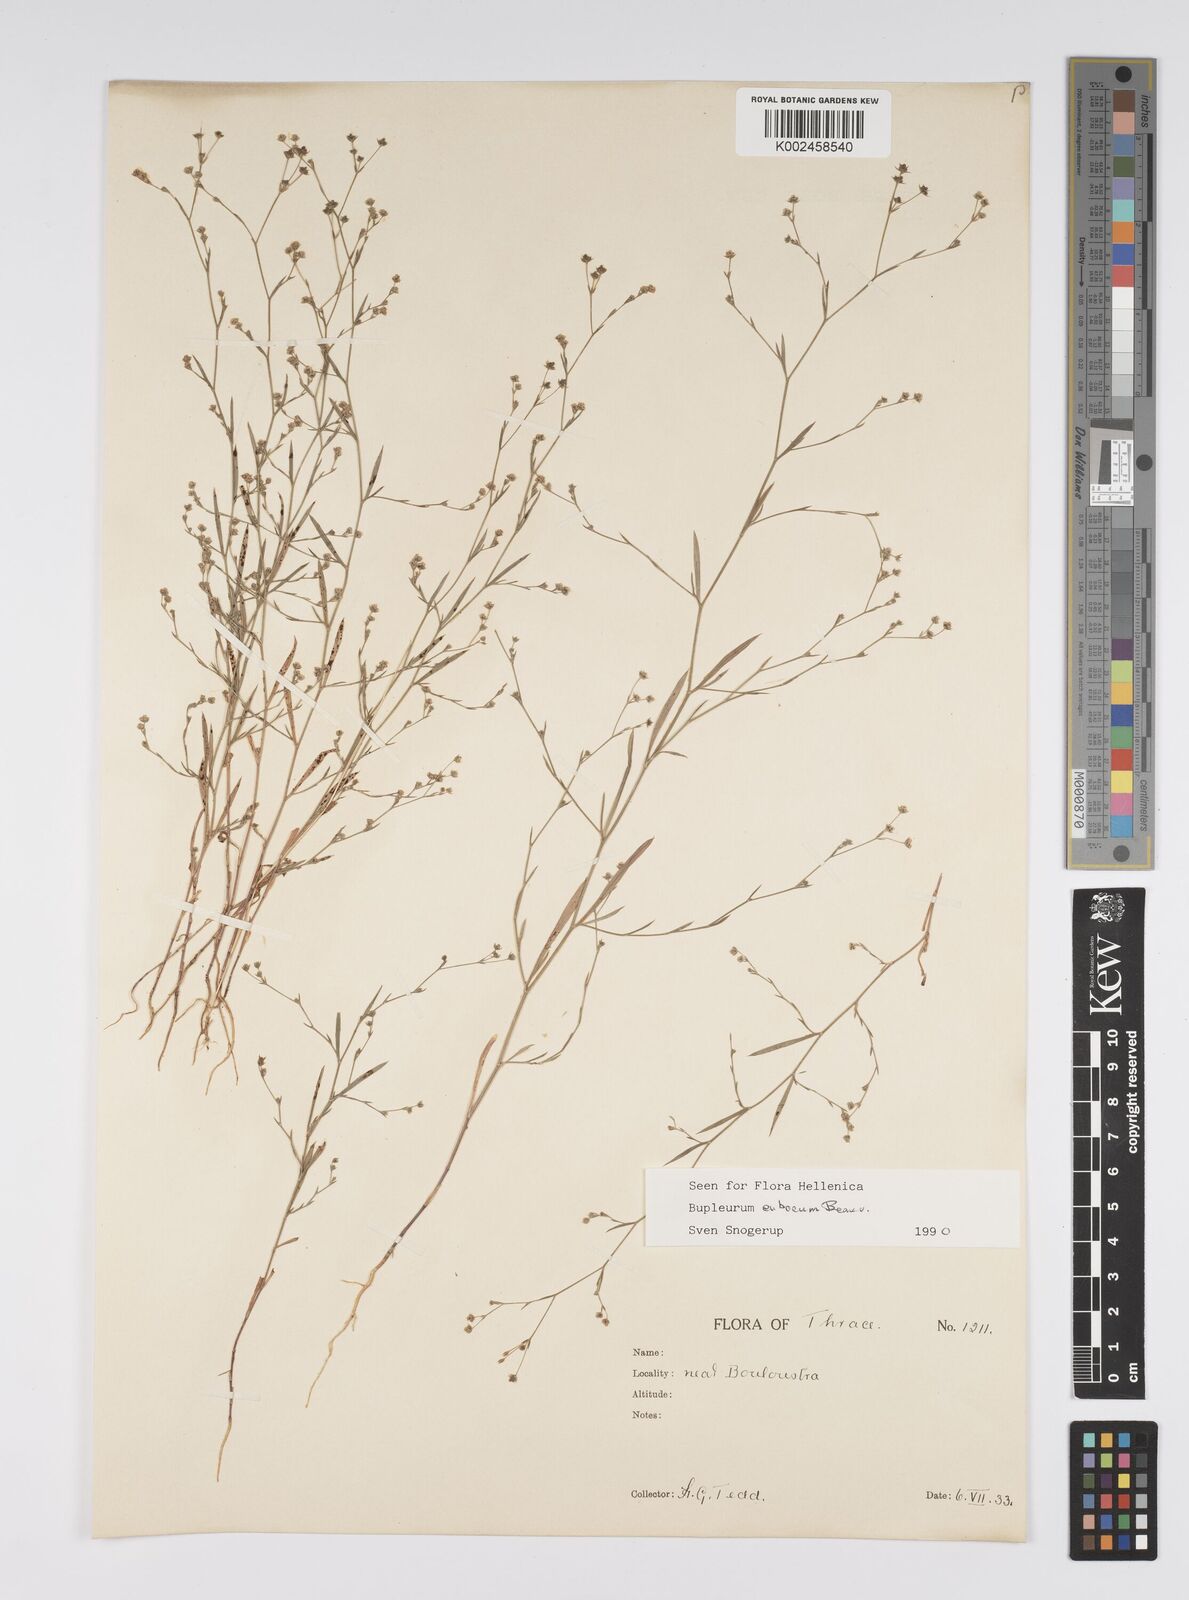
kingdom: Plantae
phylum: Tracheophyta
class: Magnoliopsida
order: Apiales
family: Apiaceae
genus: Bupleurum
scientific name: Bupleurum tenuissimum
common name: Slender hare's-ear
